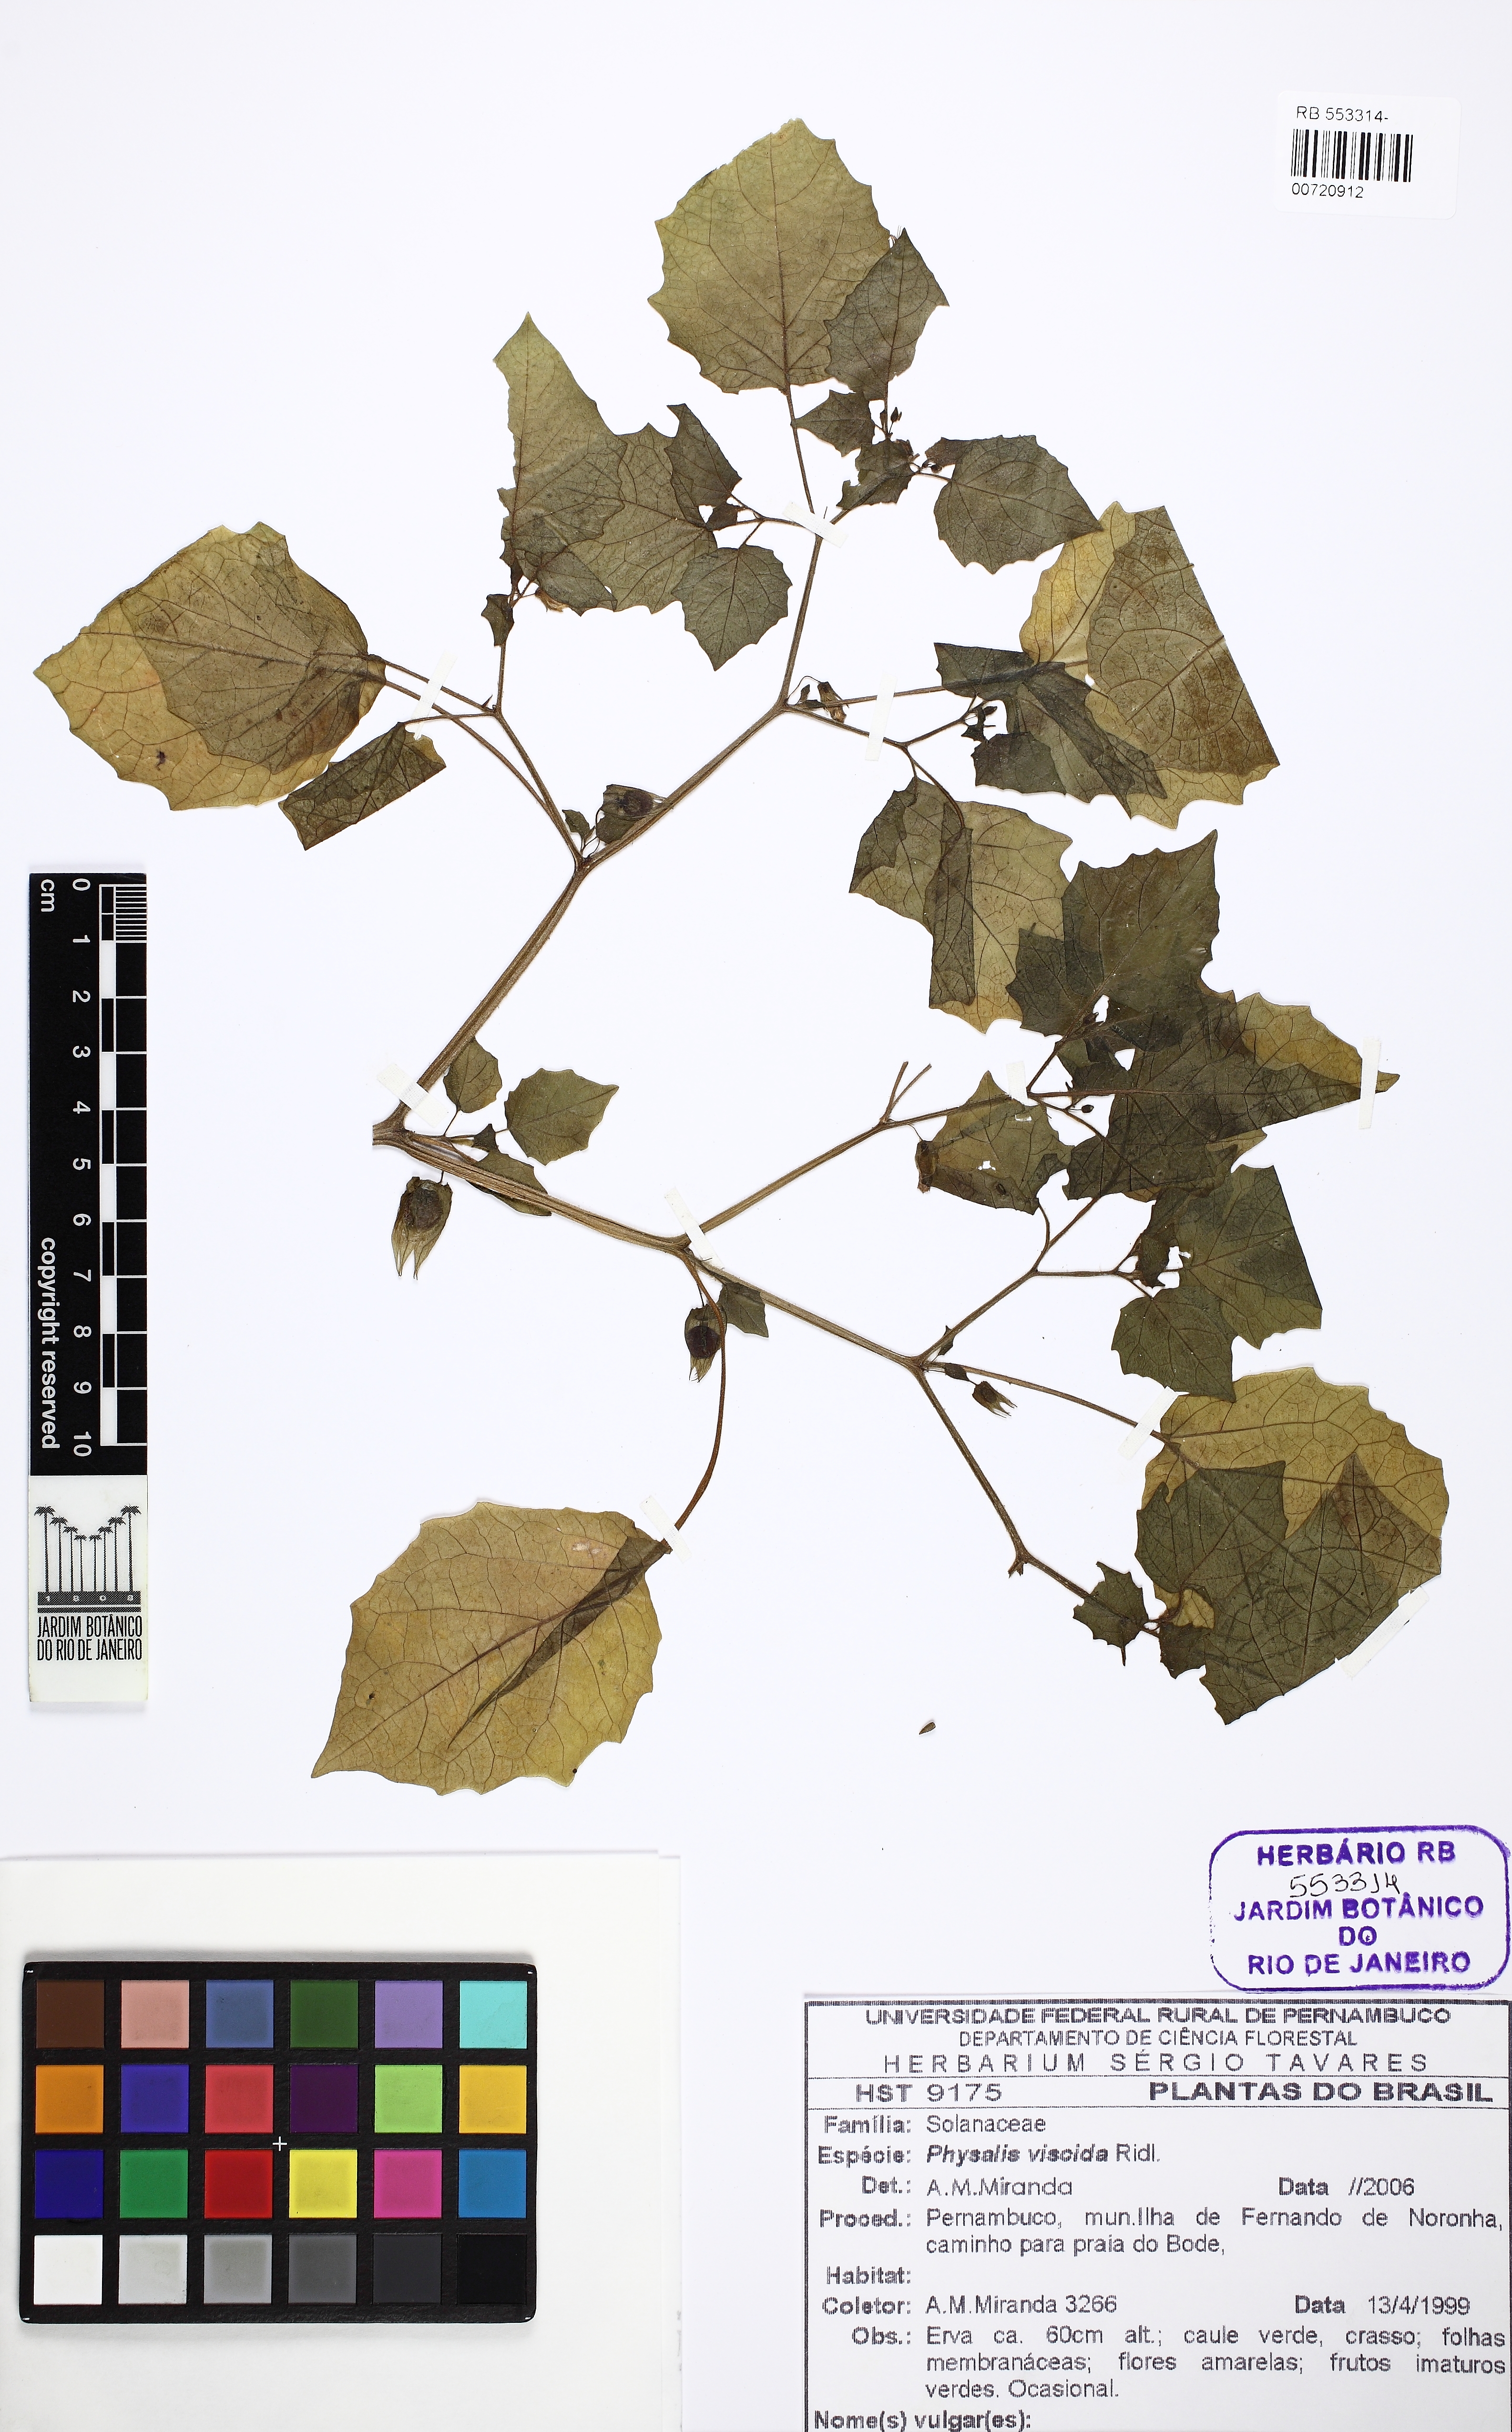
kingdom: Plantae
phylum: Tracheophyta
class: Magnoliopsida
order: Solanales
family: Solanaceae
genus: Physalis
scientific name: Physalis pruinosa
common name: Strawberry tomato
